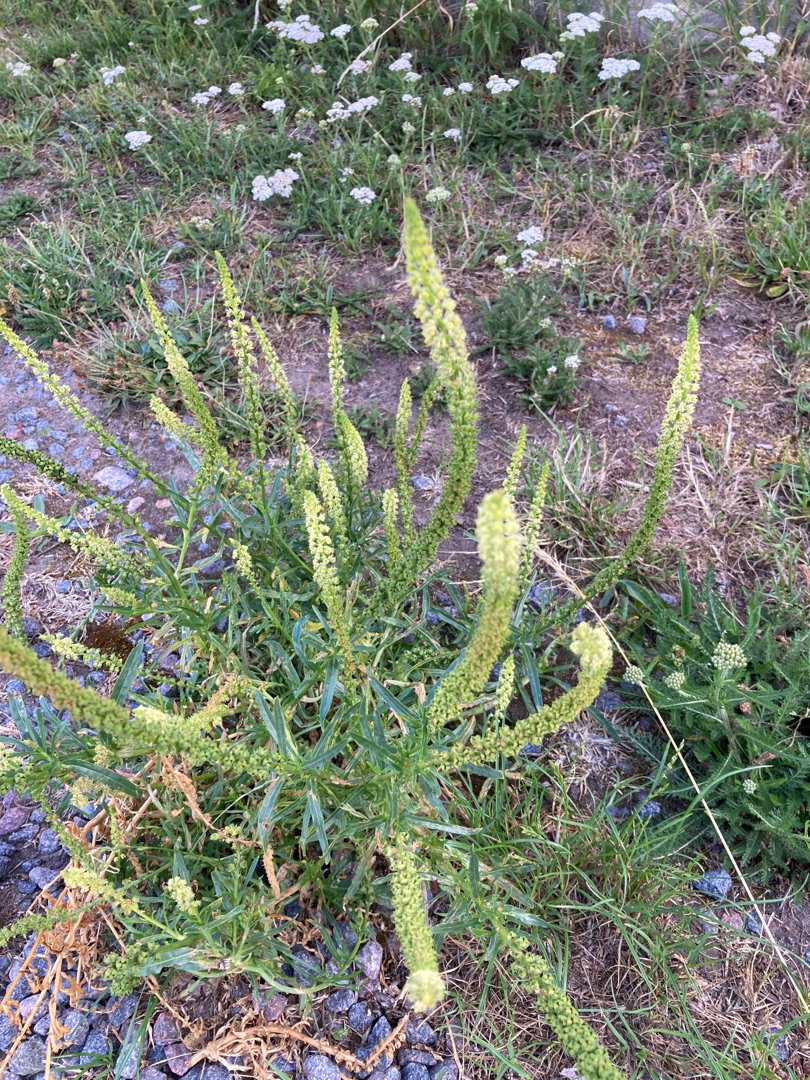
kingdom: Plantae
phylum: Tracheophyta
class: Magnoliopsida
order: Brassicales
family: Resedaceae
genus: Reseda
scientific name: Reseda luteola
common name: Farve-reseda
